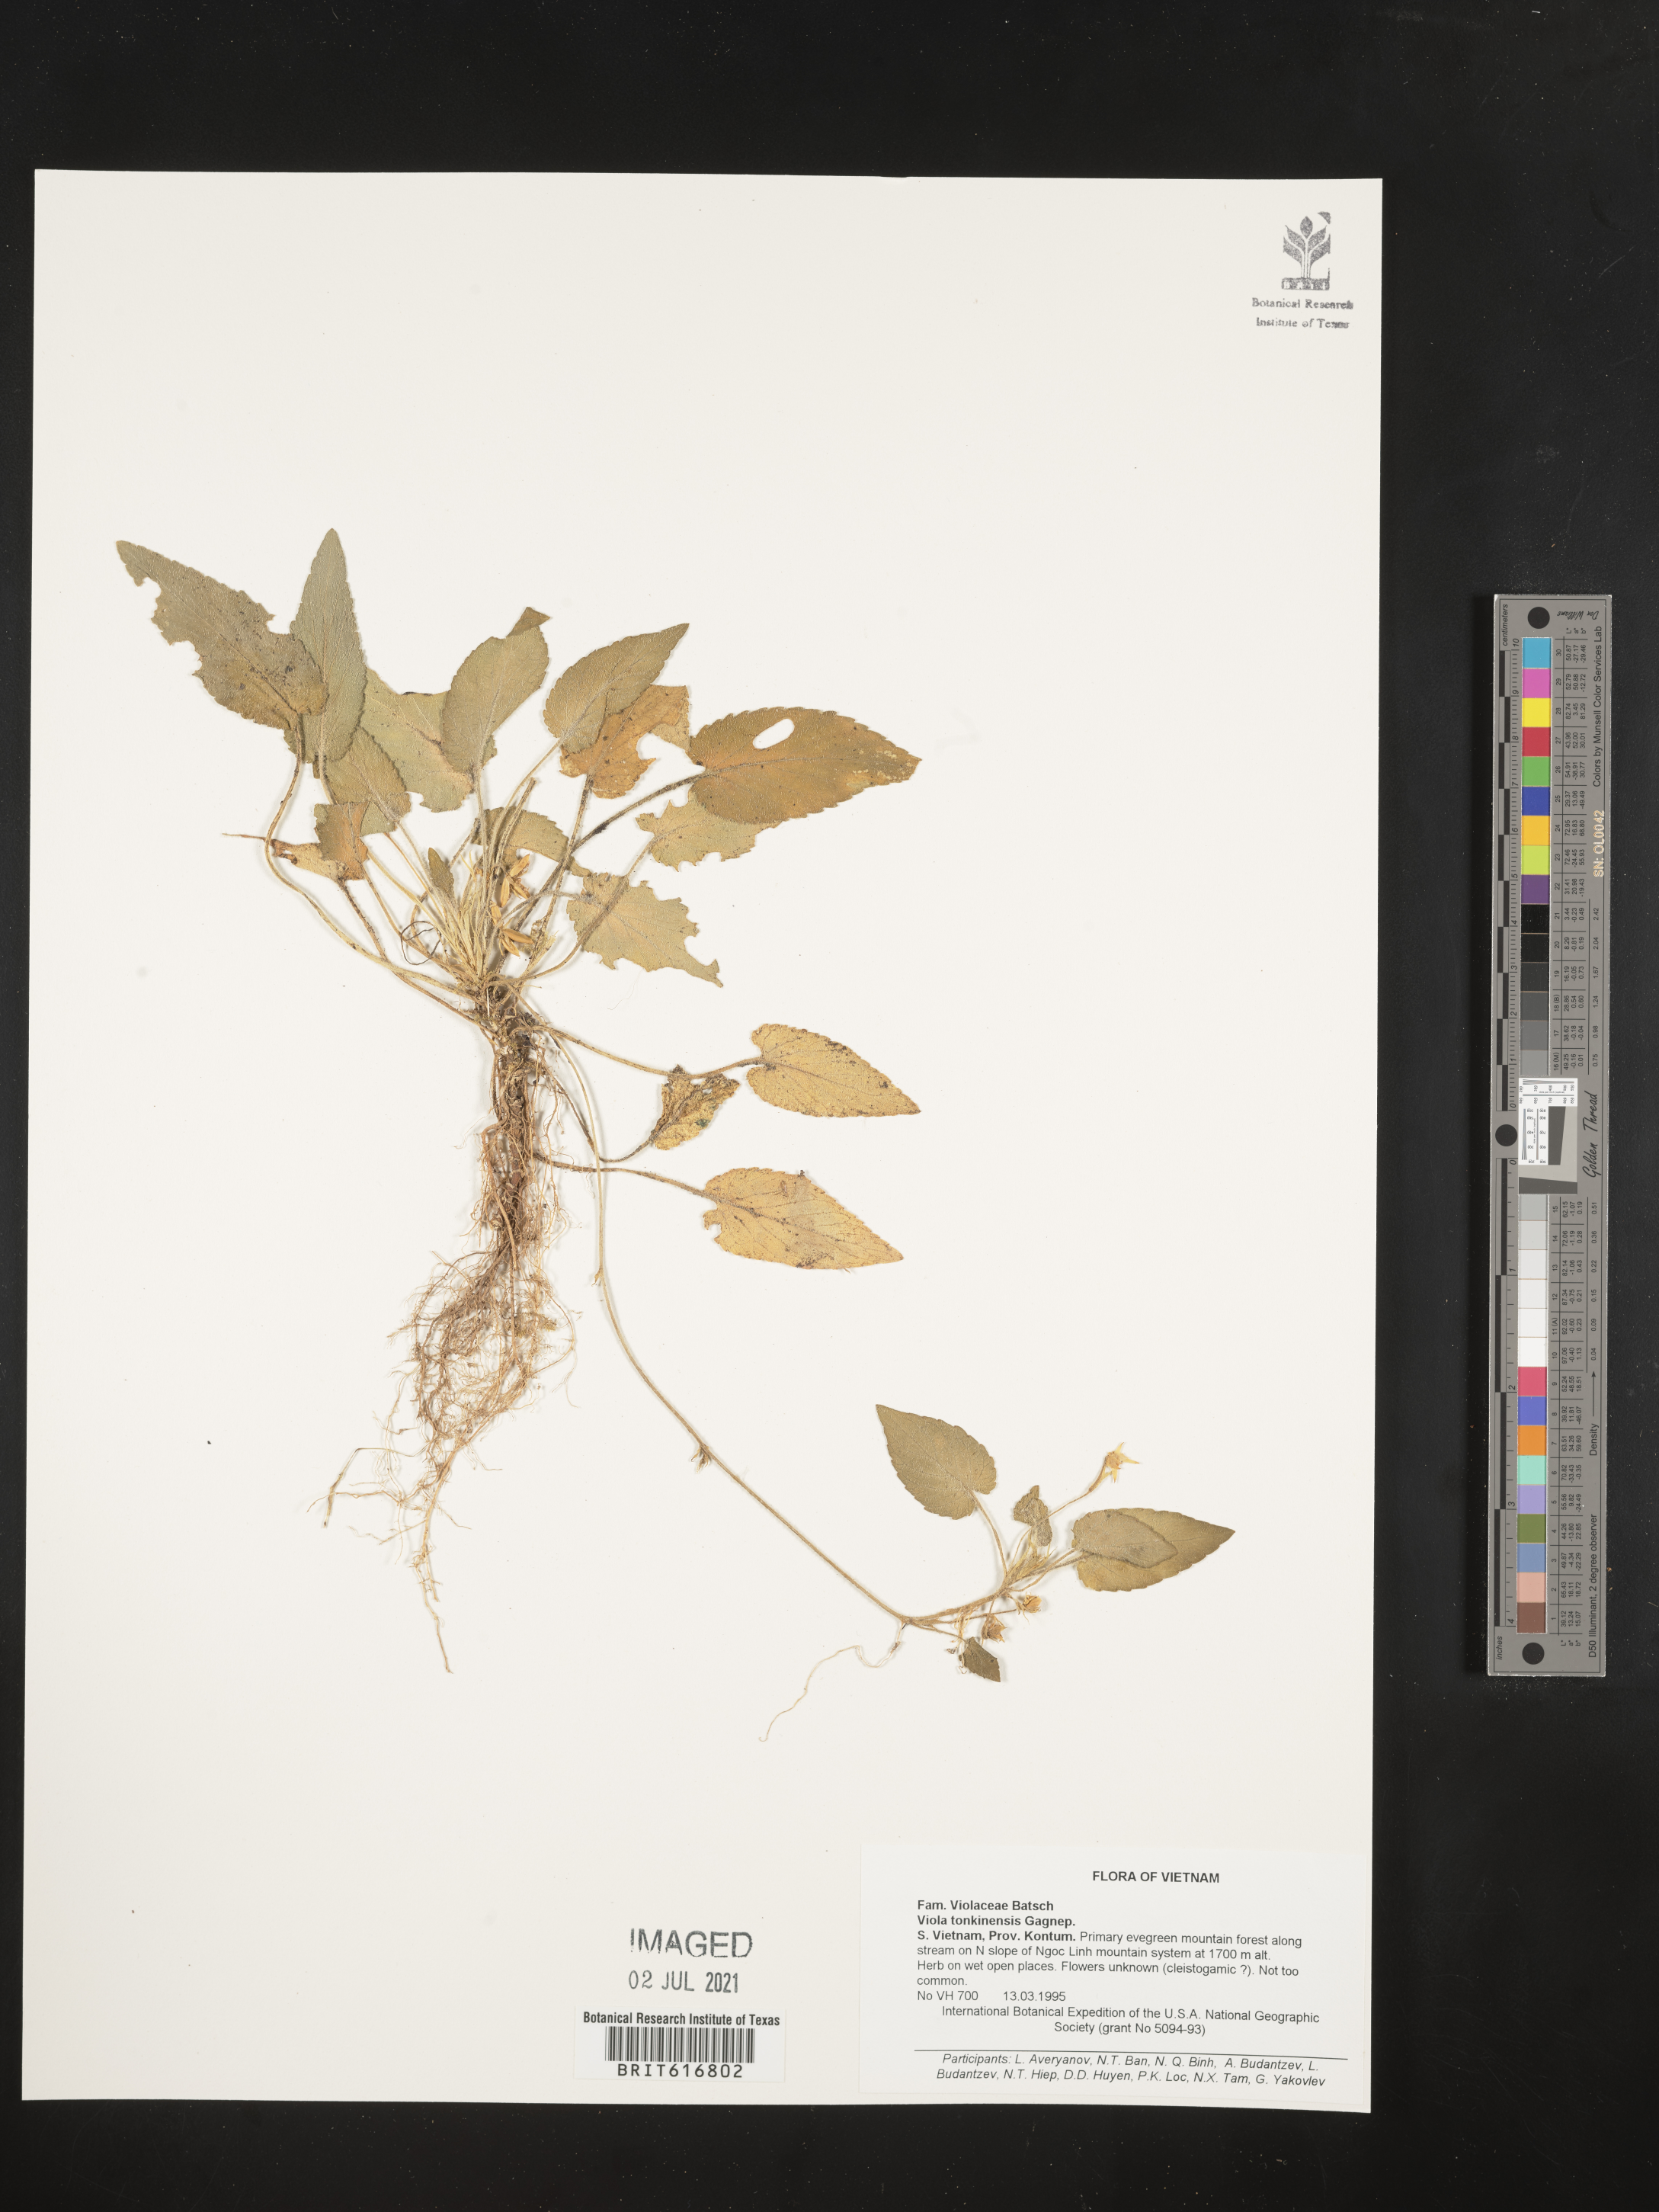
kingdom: Plantae
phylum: Tracheophyta
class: Magnoliopsida
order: Malpighiales
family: Violaceae
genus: Viola
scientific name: Viola tonkinensis
